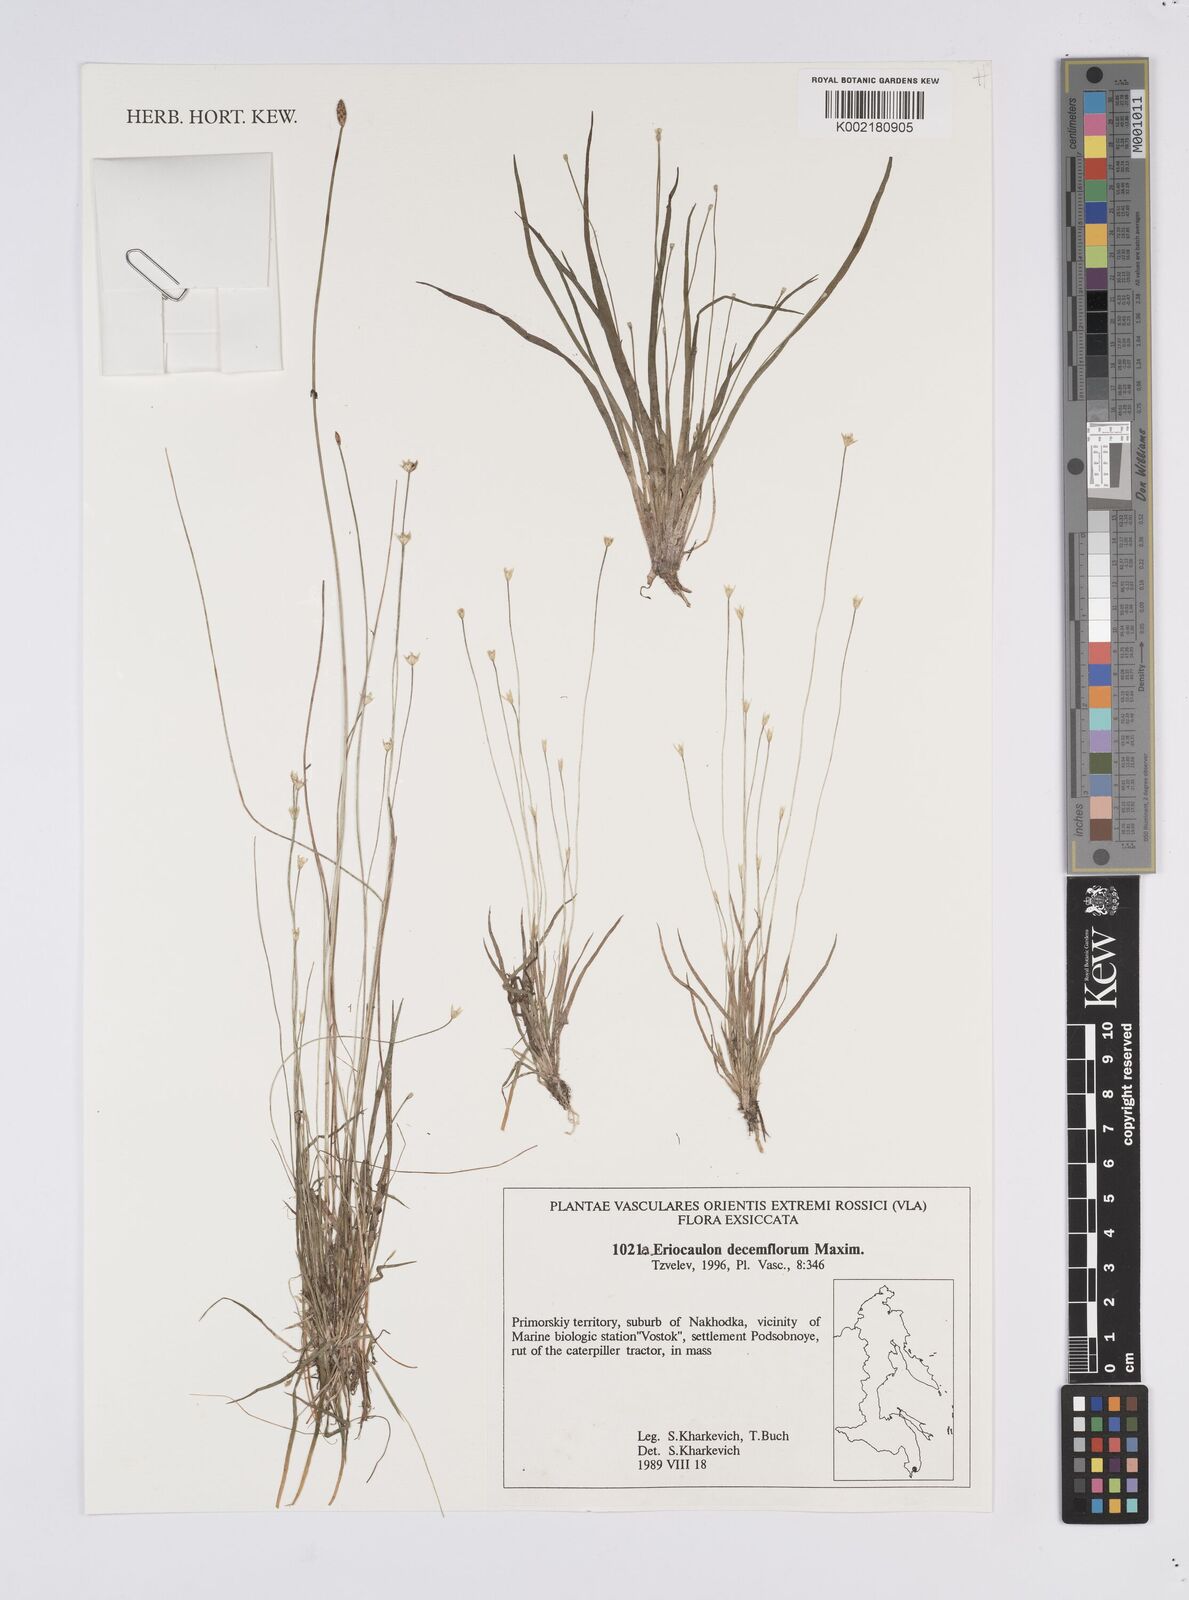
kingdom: Plantae
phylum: Tracheophyta
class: Liliopsida
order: Poales
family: Eriocaulaceae
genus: Eriocaulon
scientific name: Eriocaulon decemflorum
